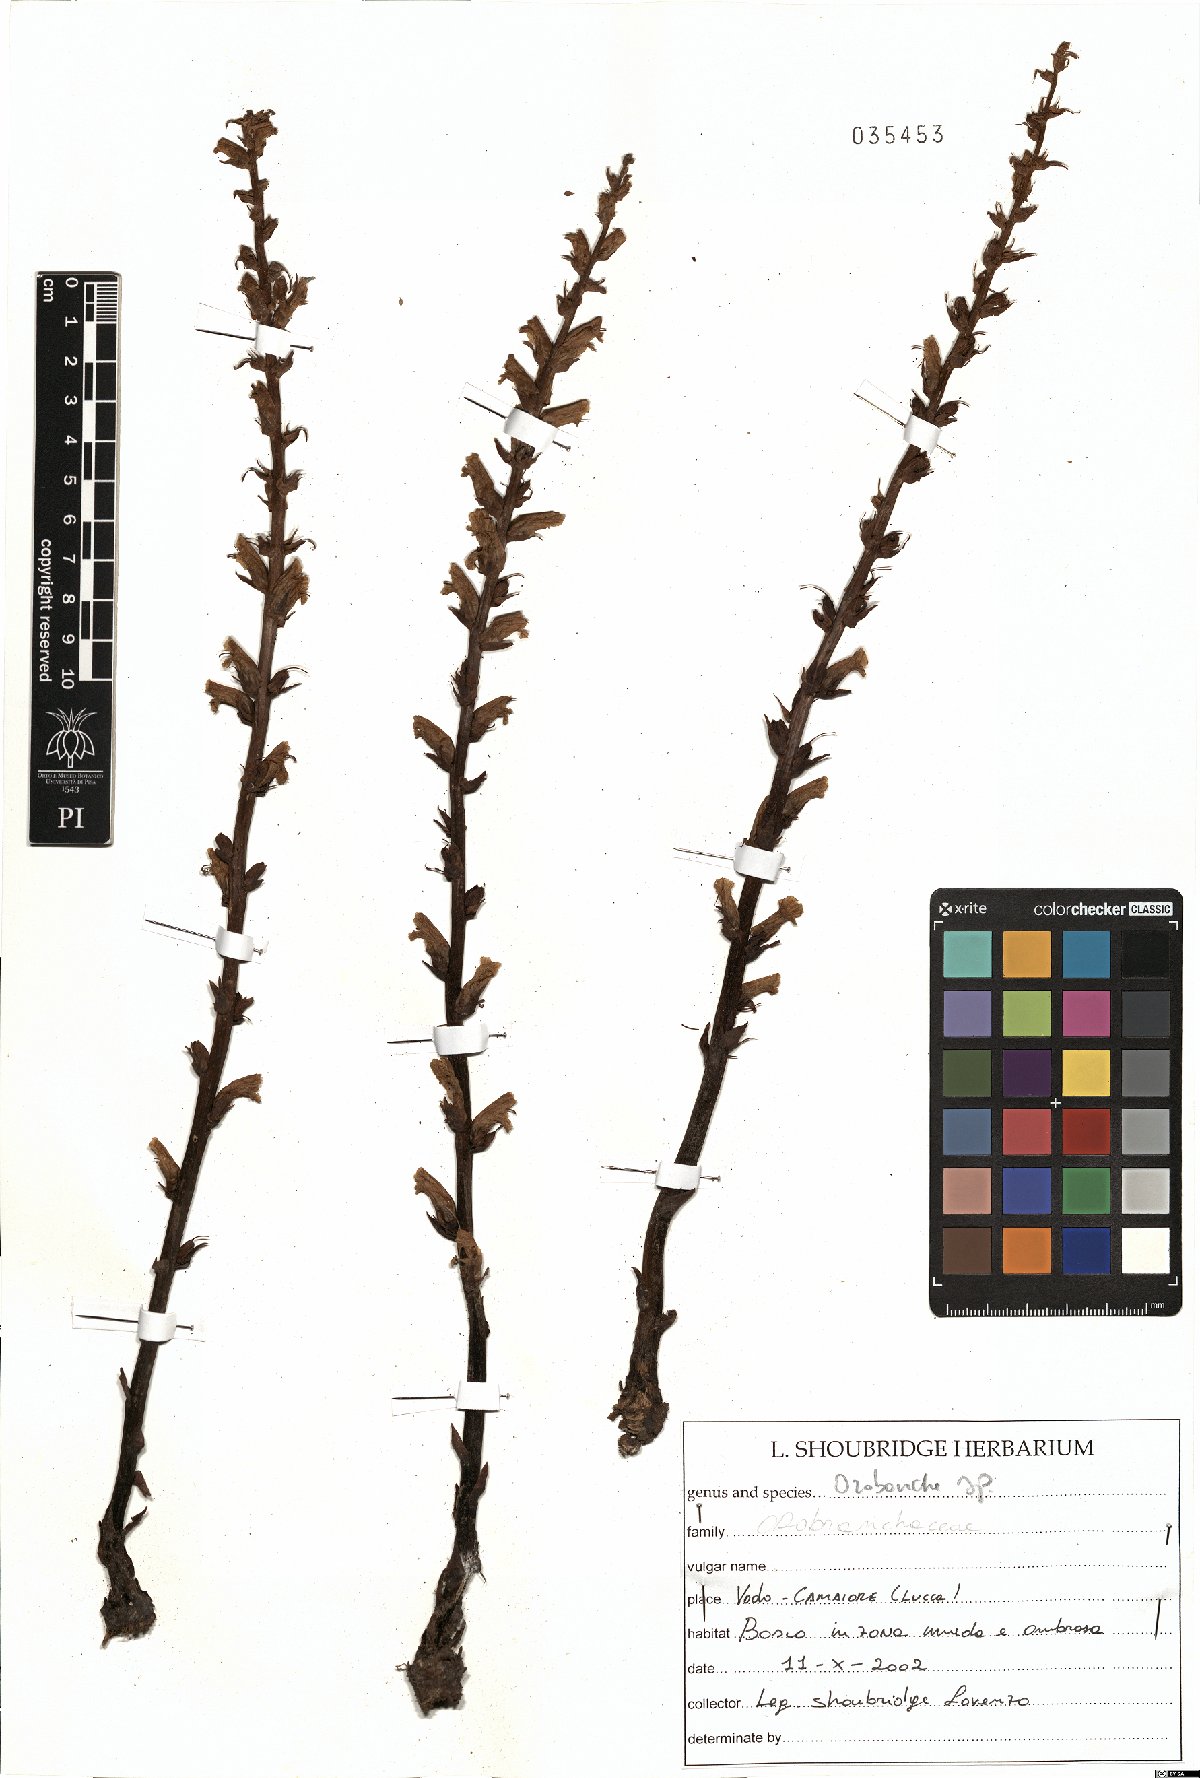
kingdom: Plantae
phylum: Tracheophyta
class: Magnoliopsida
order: Lamiales
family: Orobanchaceae
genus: Orobanche
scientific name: Orobanche
